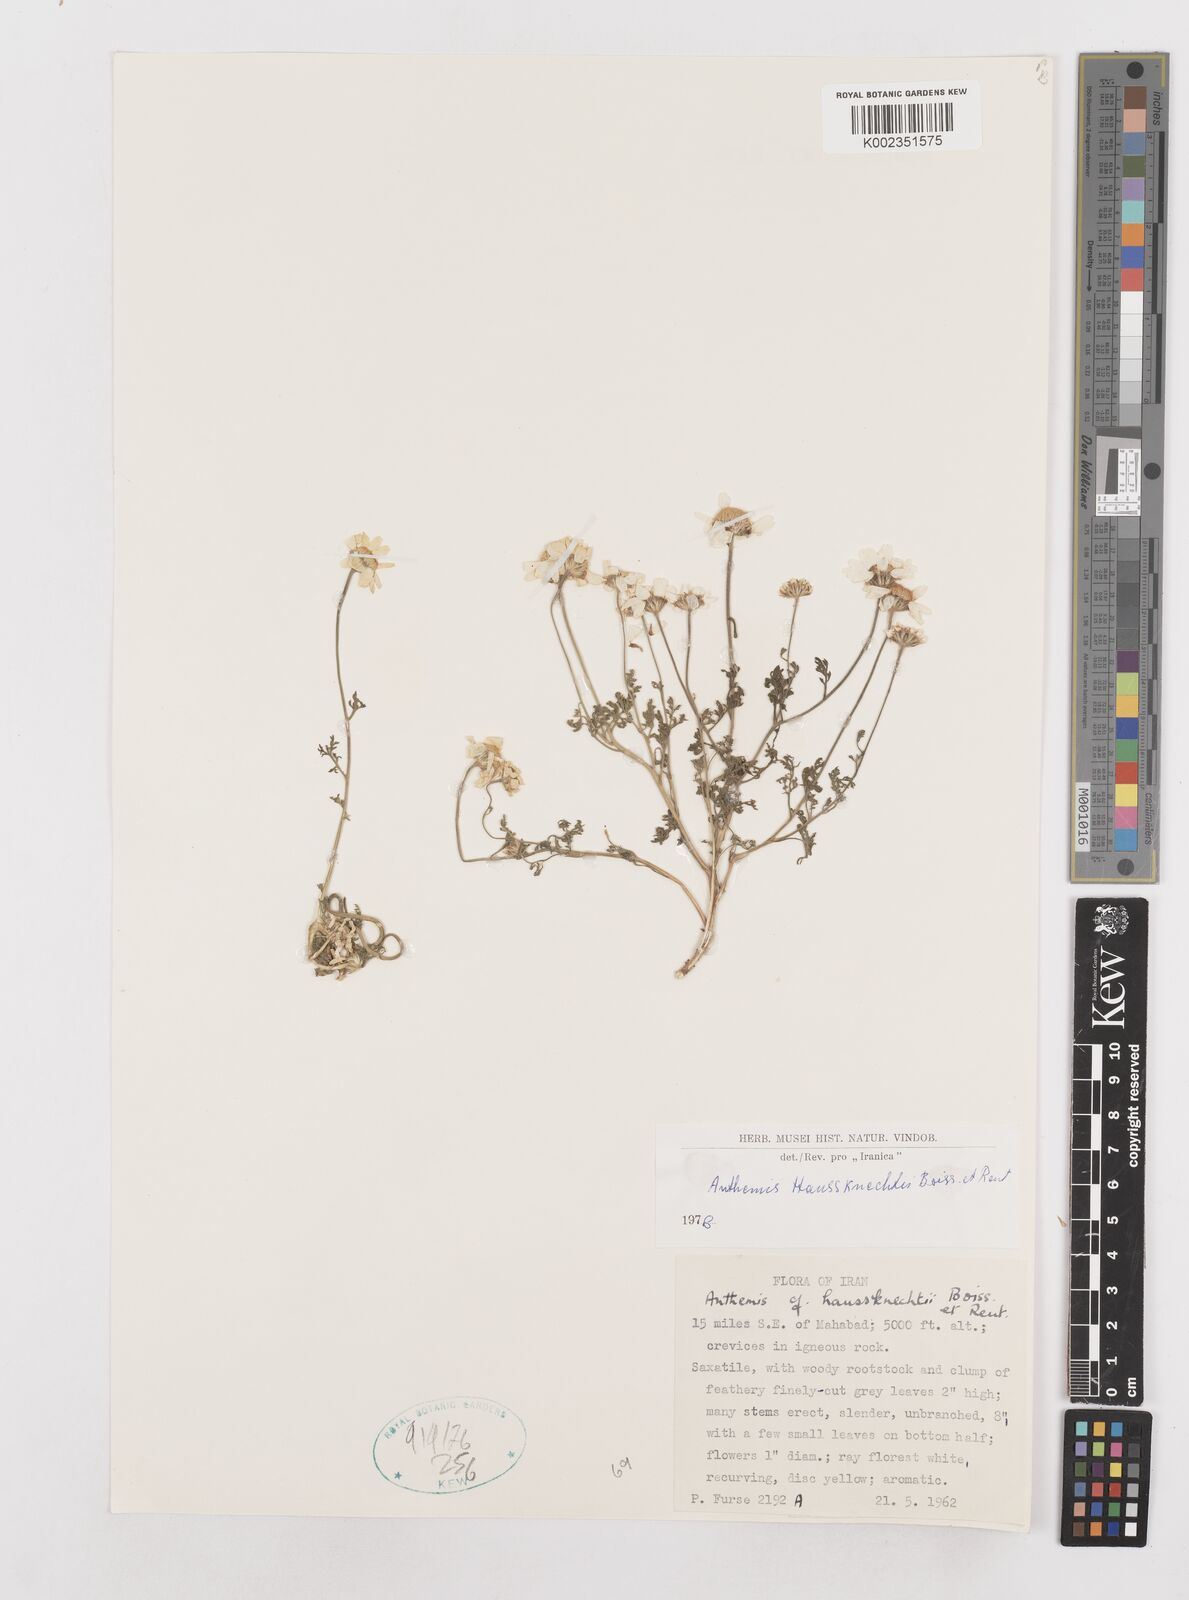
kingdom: Plantae
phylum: Tracheophyta
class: Magnoliopsida
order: Asterales
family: Asteraceae
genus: Anthemis
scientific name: Anthemis haussknechtii
